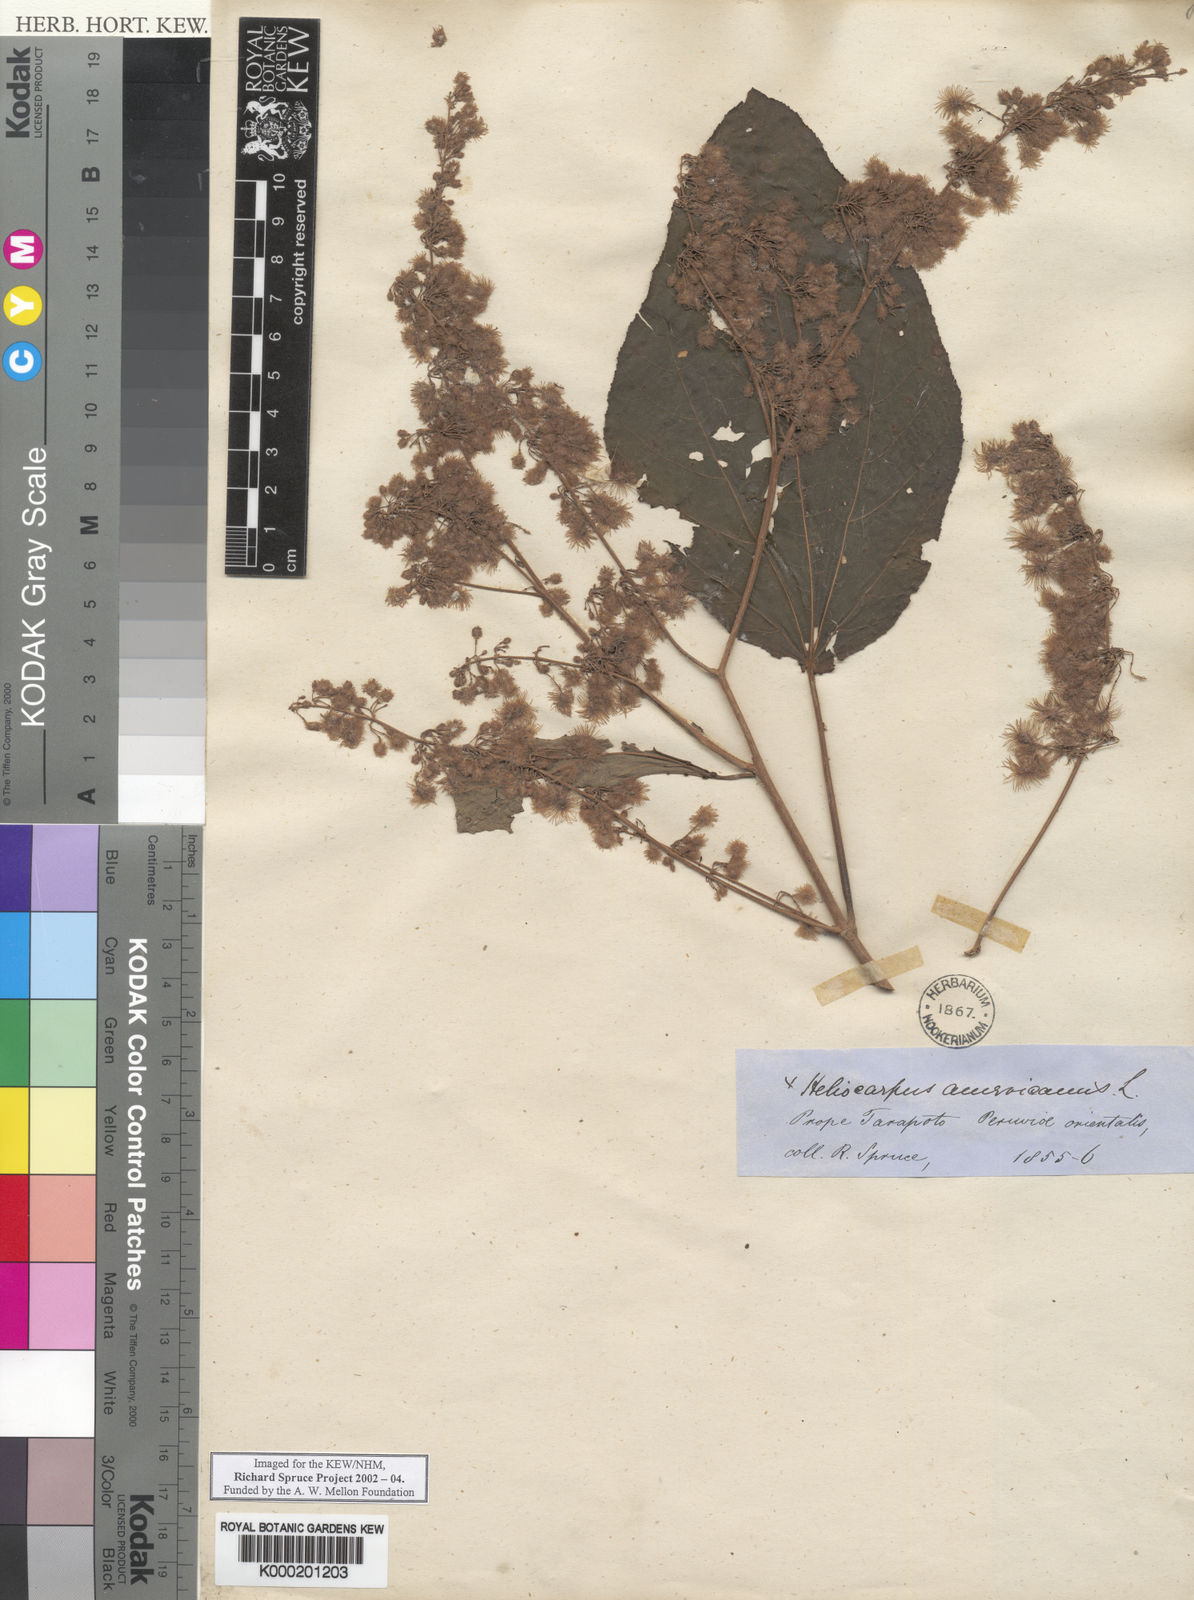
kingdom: Plantae
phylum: Tracheophyta
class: Magnoliopsida
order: Malvales
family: Malvaceae
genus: Heliocarpus
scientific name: Heliocarpus americanus
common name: White moho
